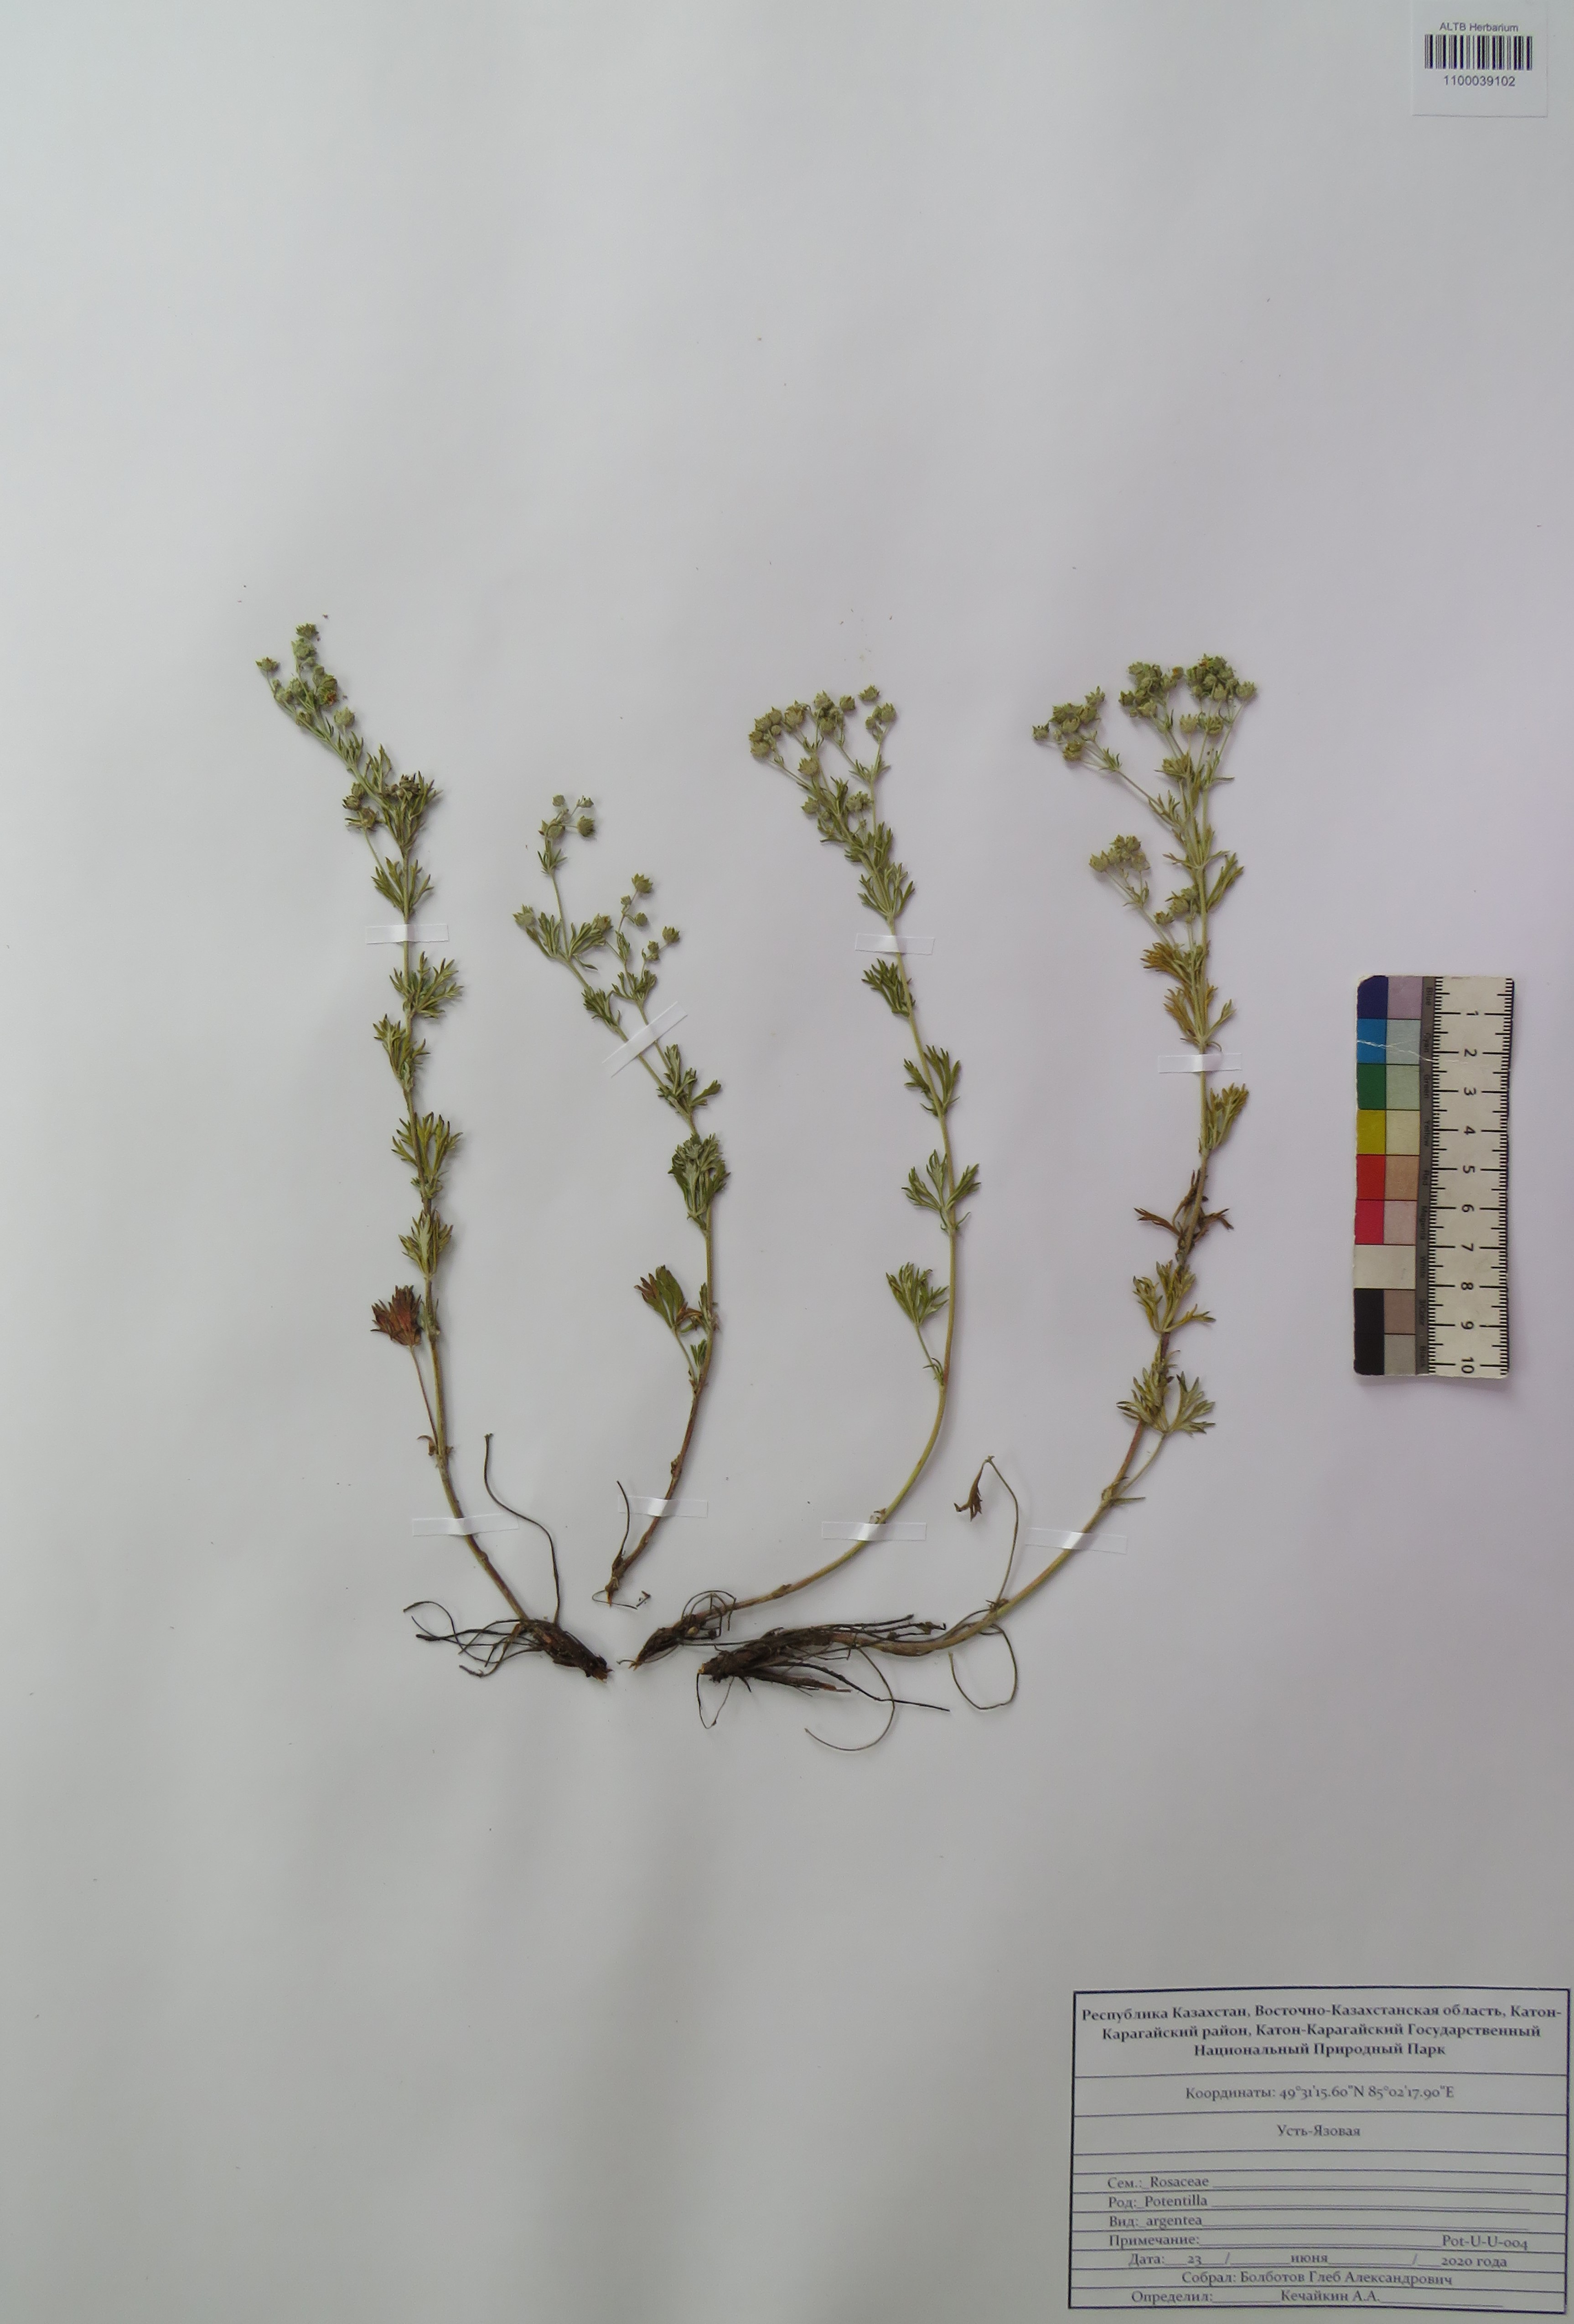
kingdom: Plantae
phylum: Tracheophyta
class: Magnoliopsida
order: Rosales
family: Rosaceae
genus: Potentilla
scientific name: Potentilla argentea
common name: Hoary cinquefoil
